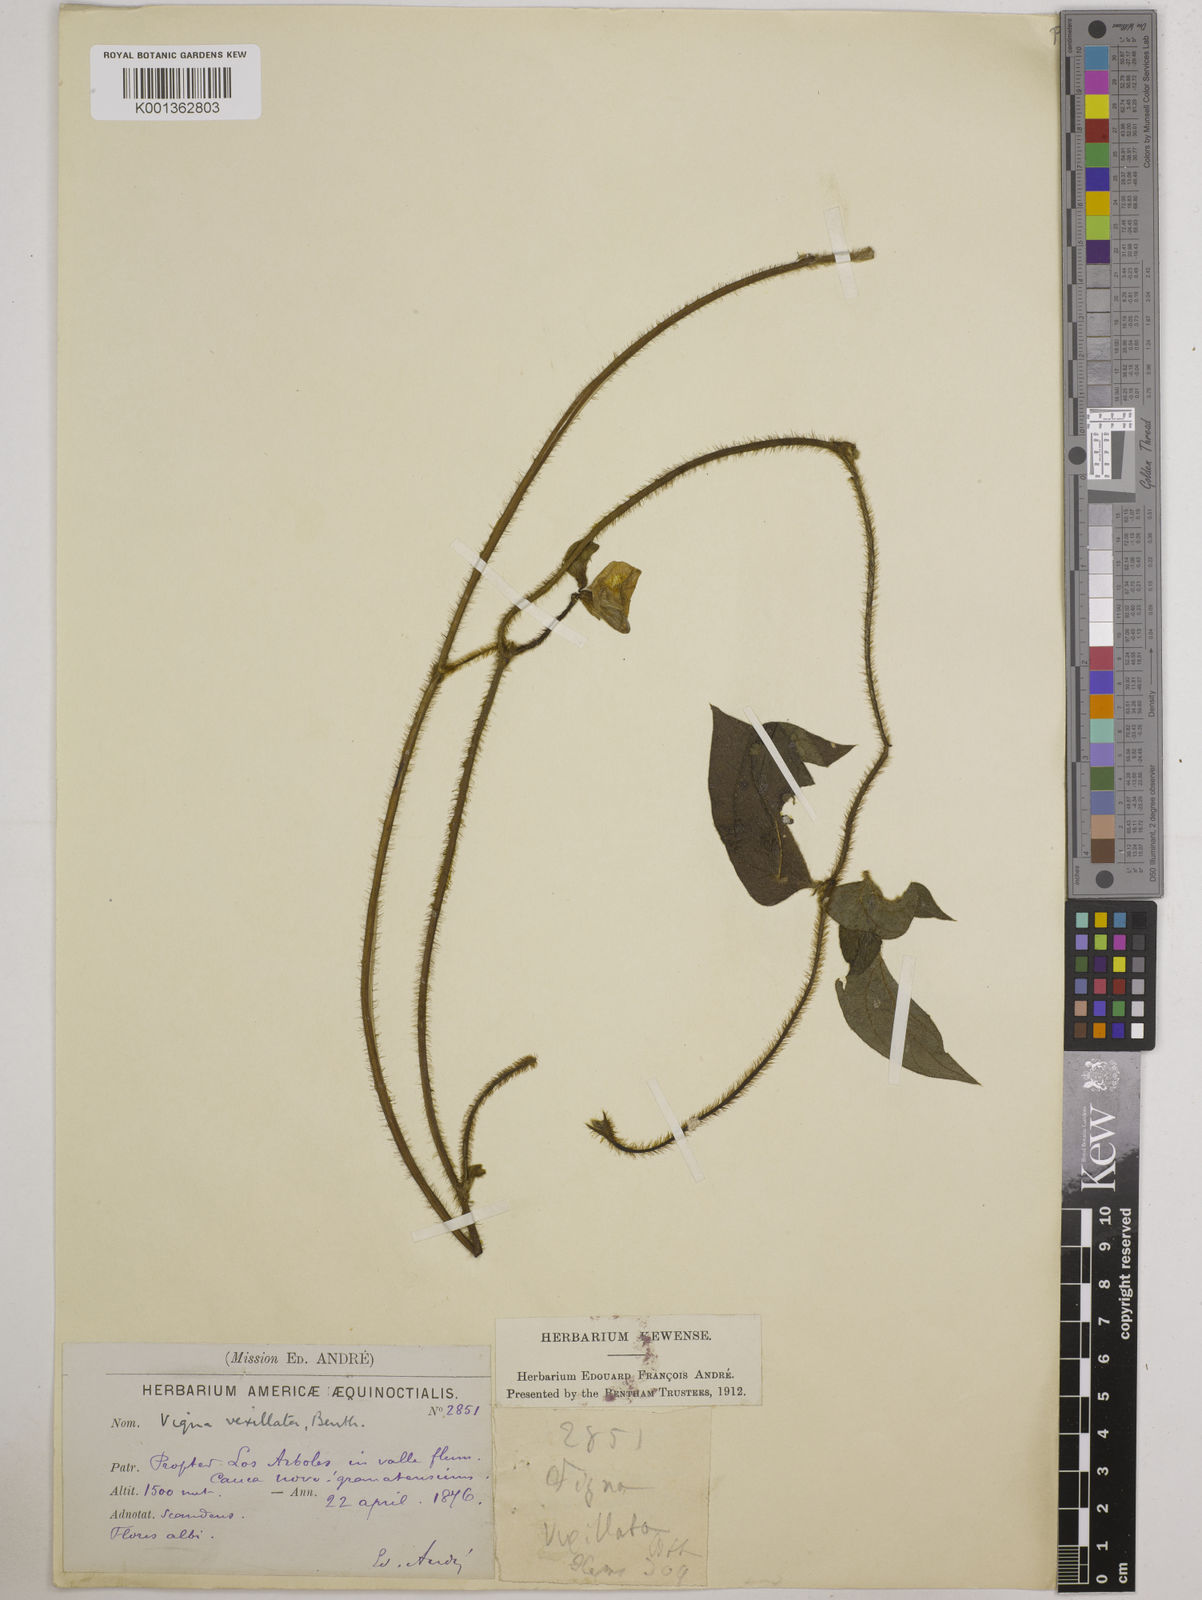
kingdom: Plantae
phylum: Tracheophyta
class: Magnoliopsida
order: Fabales
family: Fabaceae
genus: Vigna
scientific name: Vigna vexillata
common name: Zombi pea
